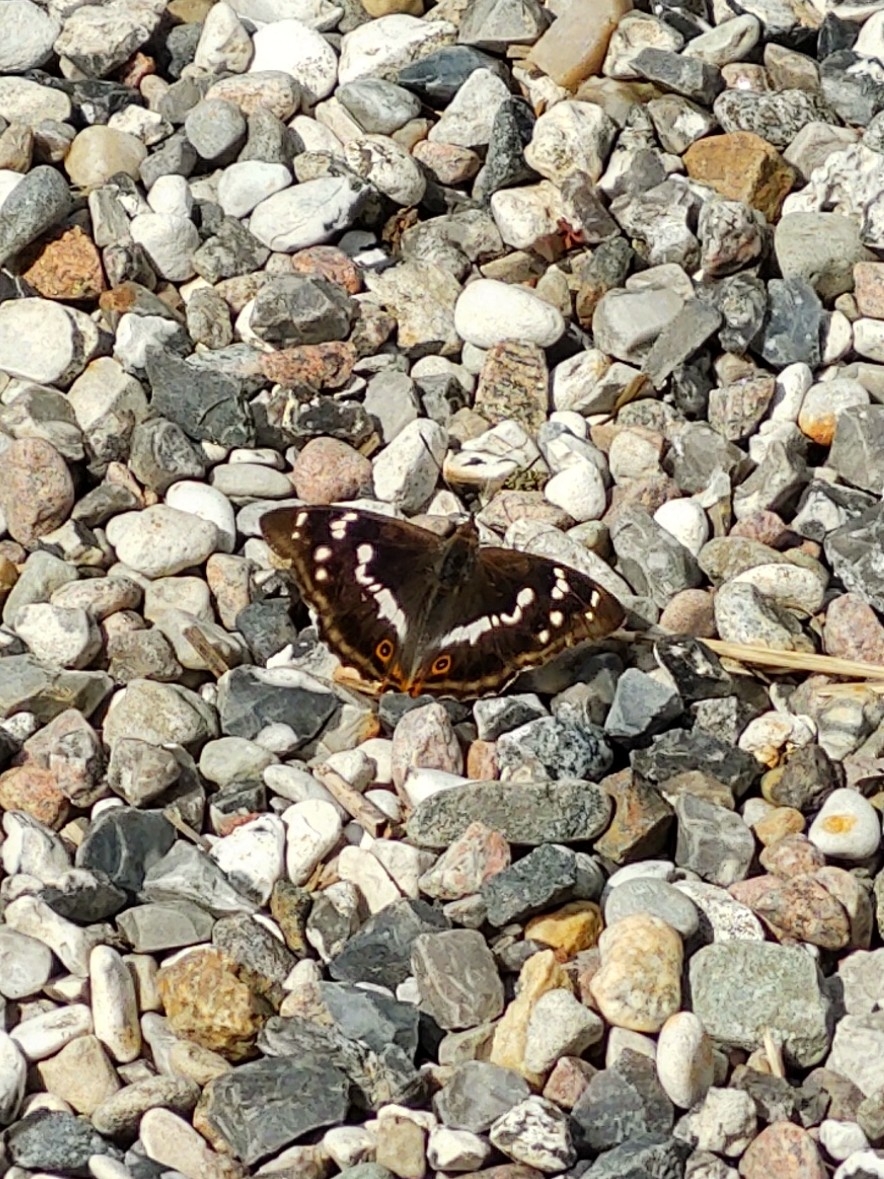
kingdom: Animalia
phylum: Arthropoda
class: Insecta
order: Lepidoptera
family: Nymphalidae
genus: Apatura
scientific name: Apatura iris
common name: Iris
